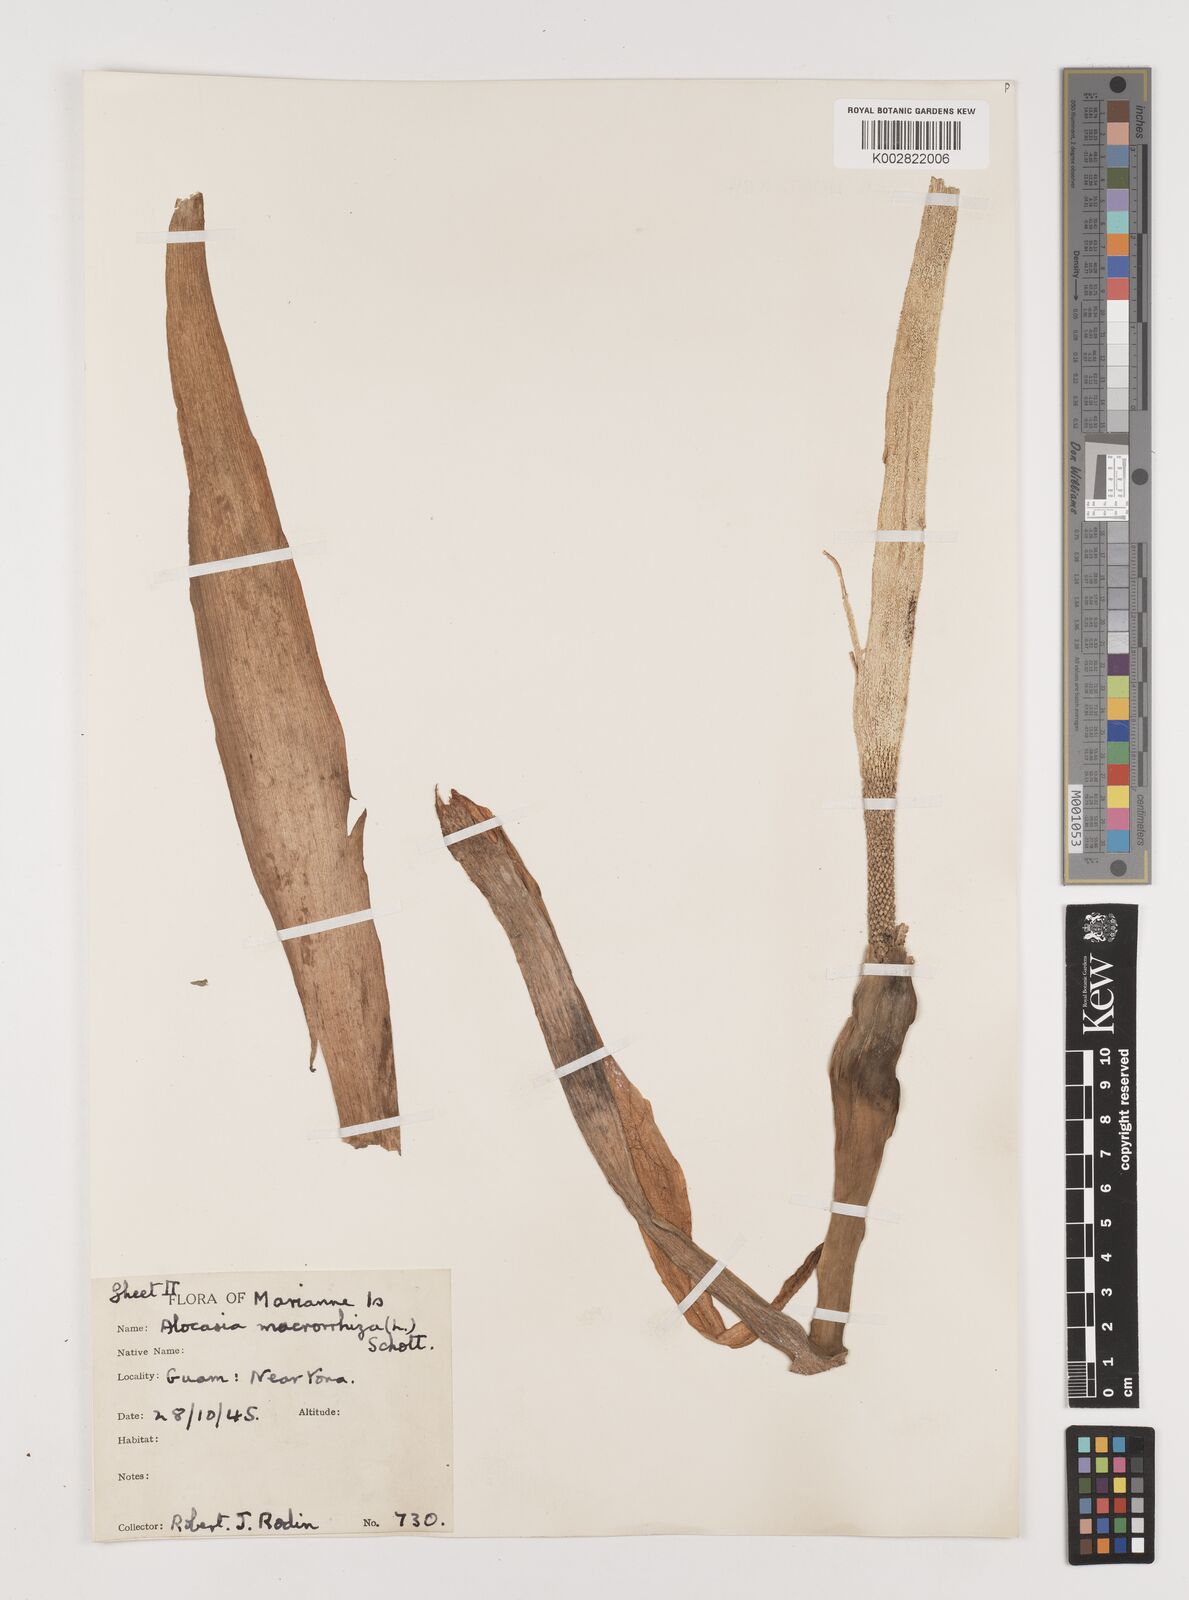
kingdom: Plantae
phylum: Tracheophyta
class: Liliopsida
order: Alismatales
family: Araceae
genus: Alocasia
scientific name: Alocasia macrorrhizos
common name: Giant taro
